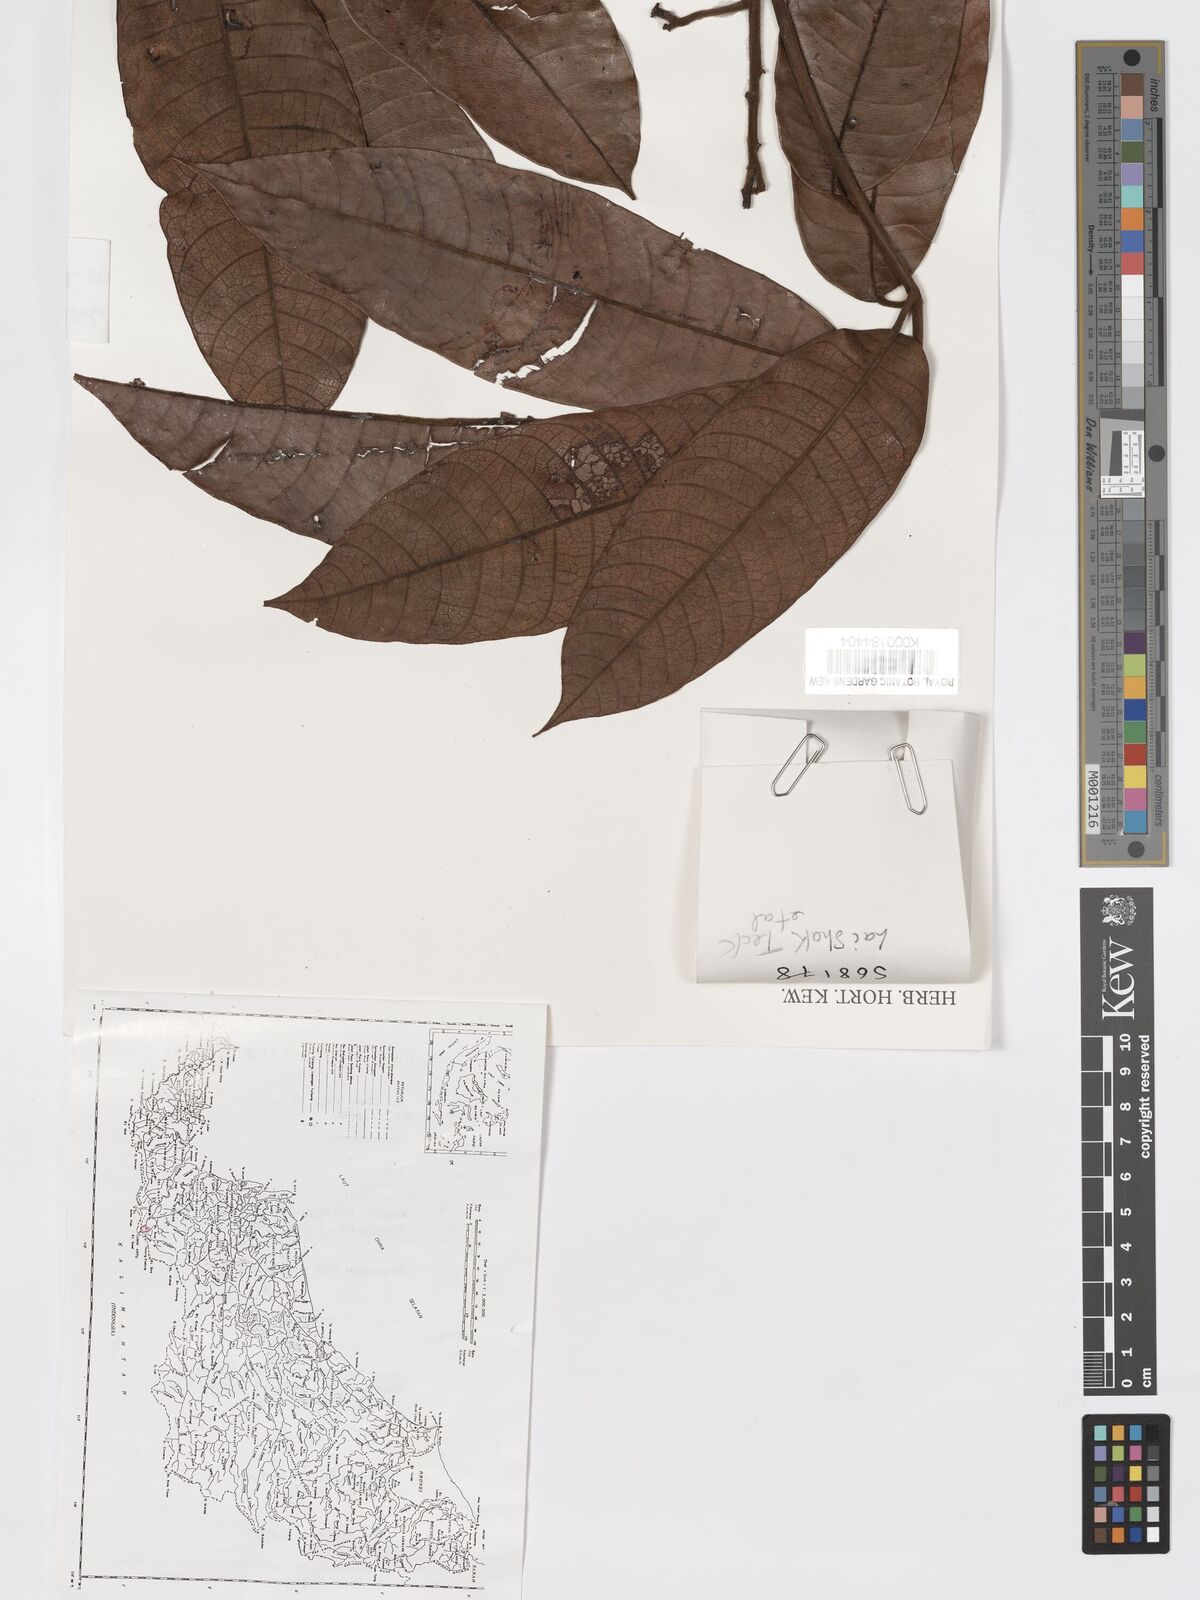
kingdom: Plantae
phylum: Tracheophyta
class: Magnoliopsida
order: Sapindales
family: Burseraceae
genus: Santiria
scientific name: Santiria tomentosa
